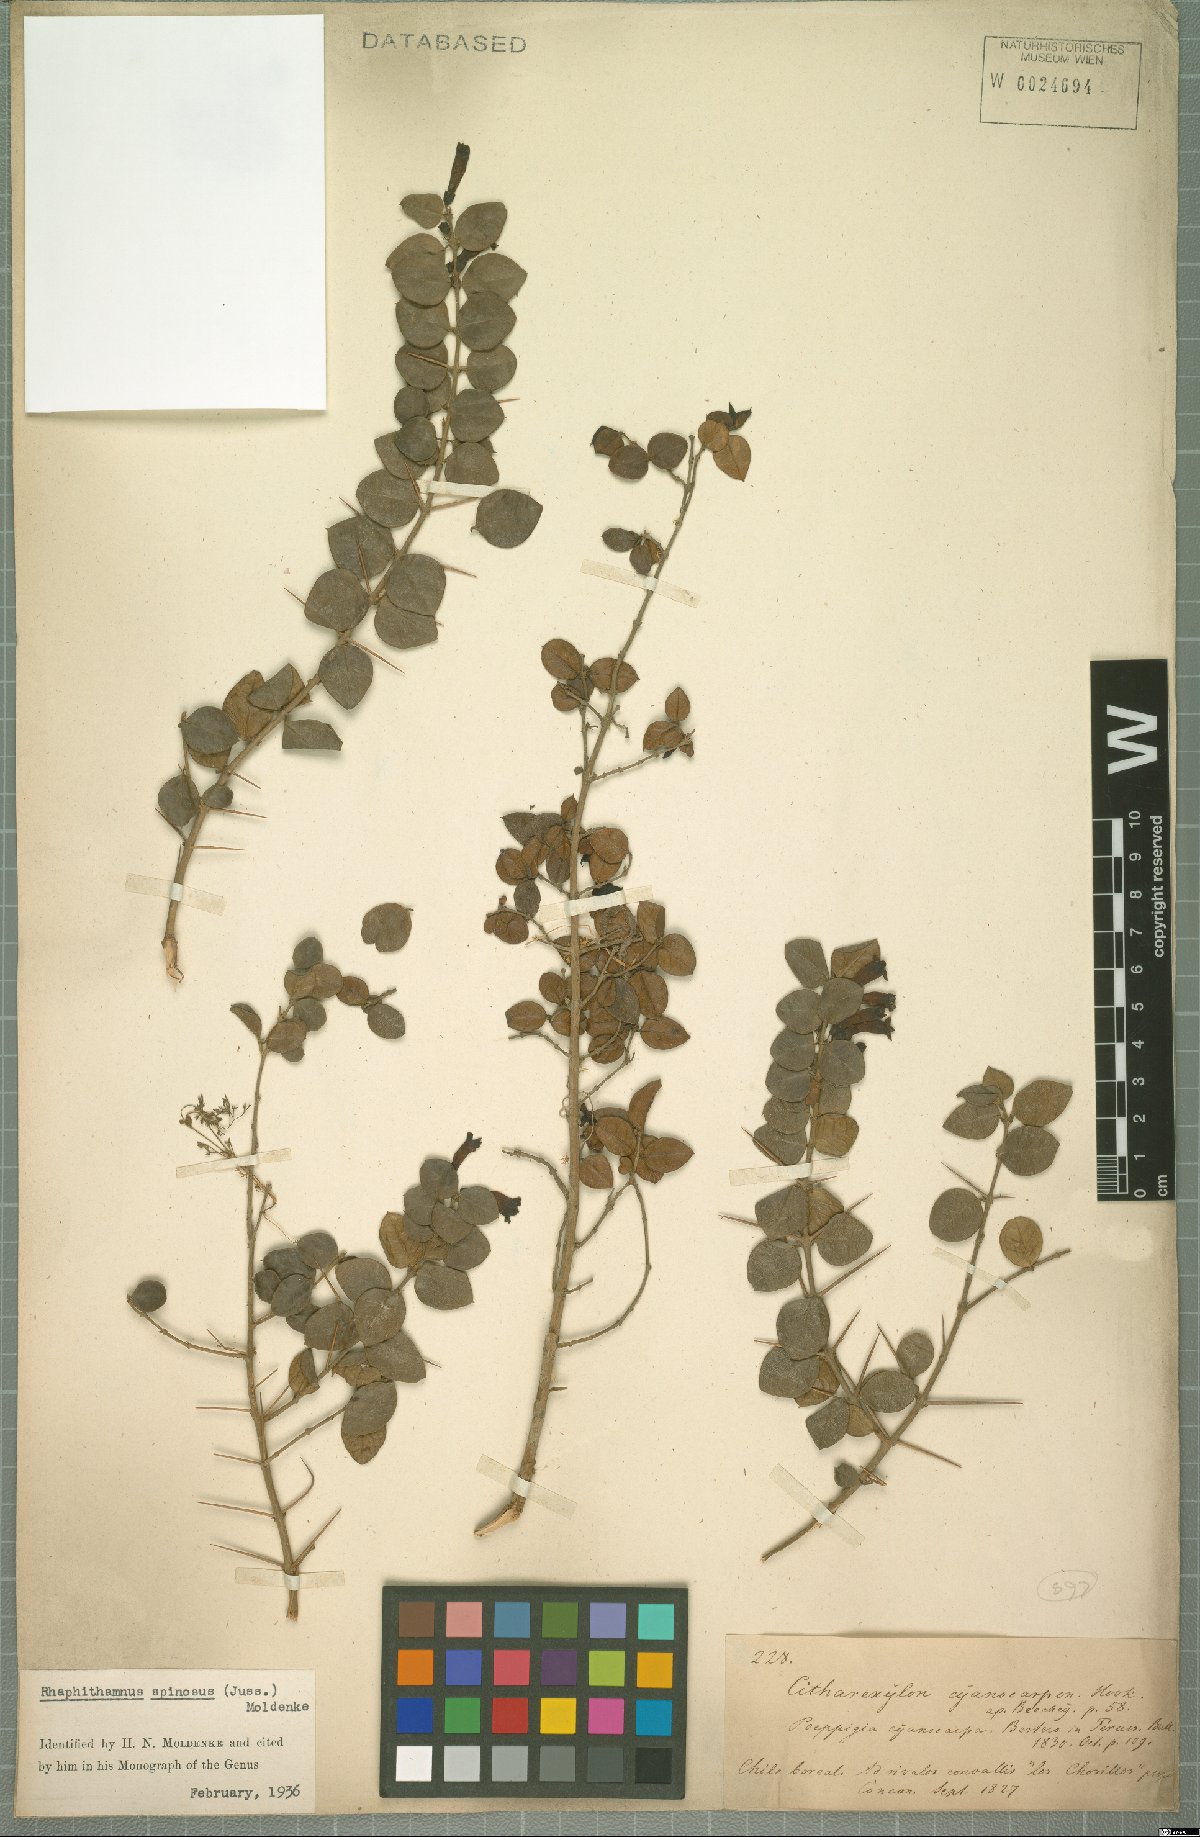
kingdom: Plantae
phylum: Tracheophyta
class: Magnoliopsida
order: Lamiales
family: Verbenaceae
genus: Rhaphithamnus
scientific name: Rhaphithamnus spinosus
